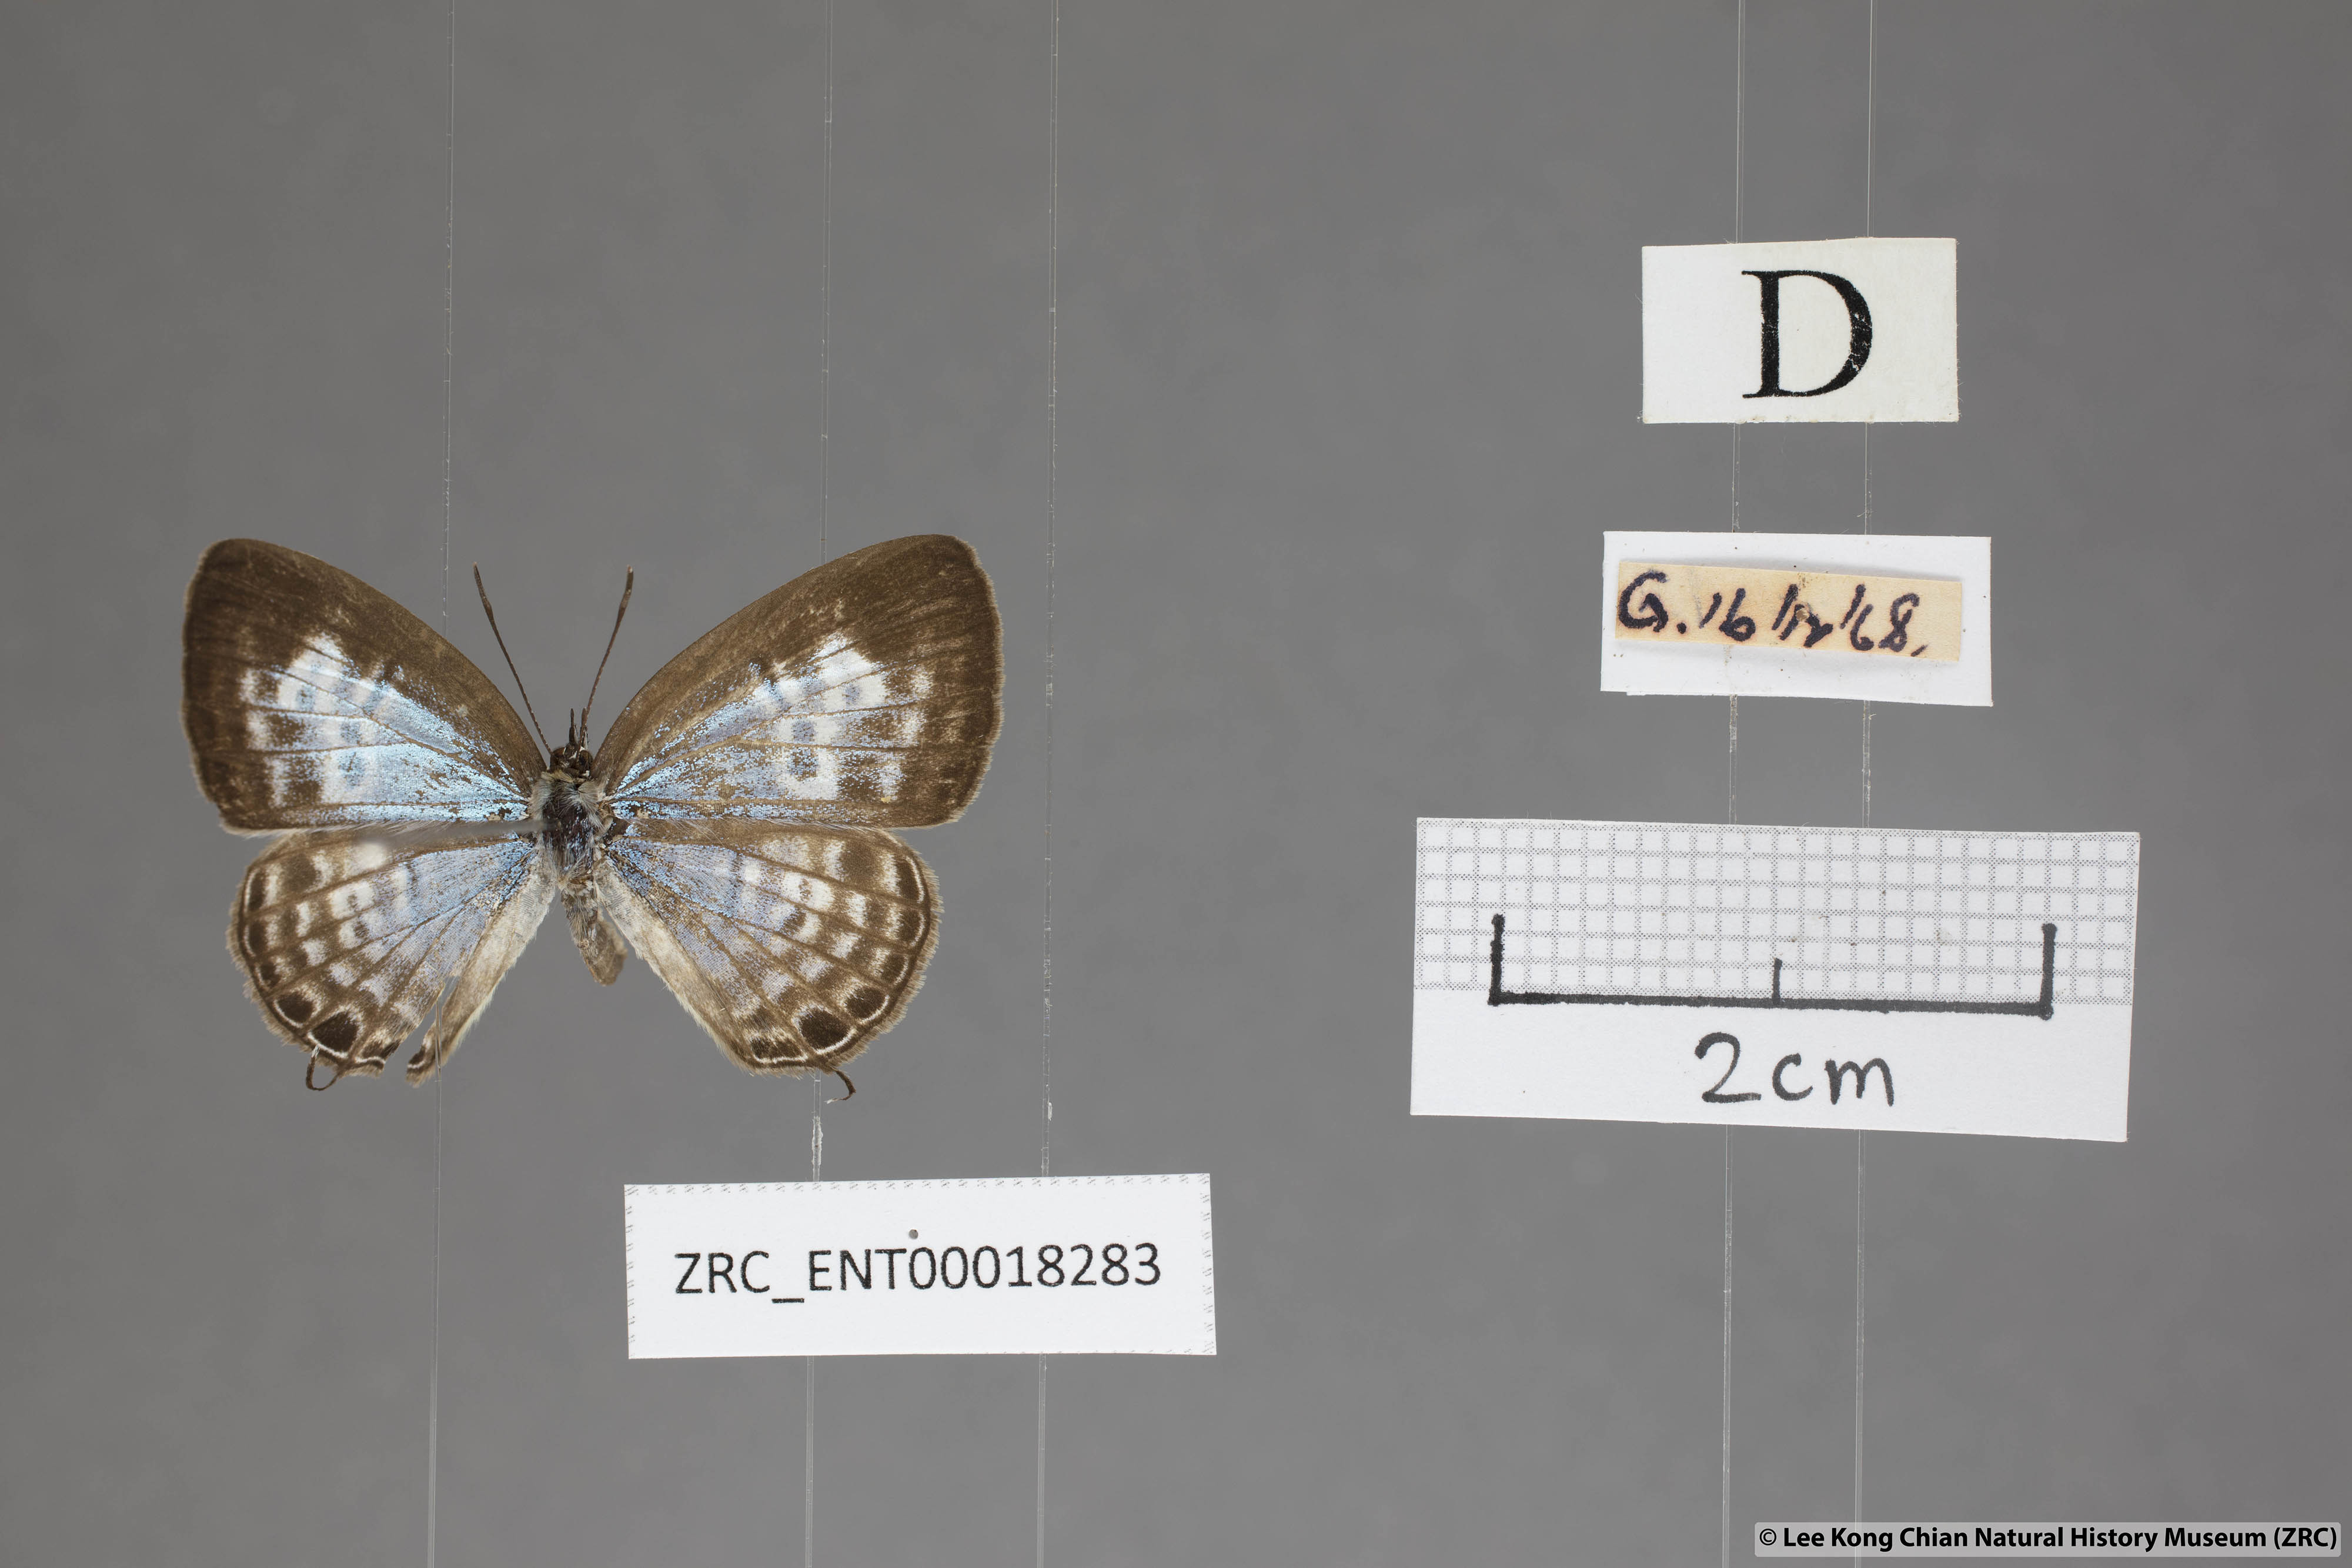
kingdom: Animalia
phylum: Arthropoda
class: Insecta
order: Lepidoptera
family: Lycaenidae
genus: Nacaduba
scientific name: Nacaduba angusta
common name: White four-line blue
